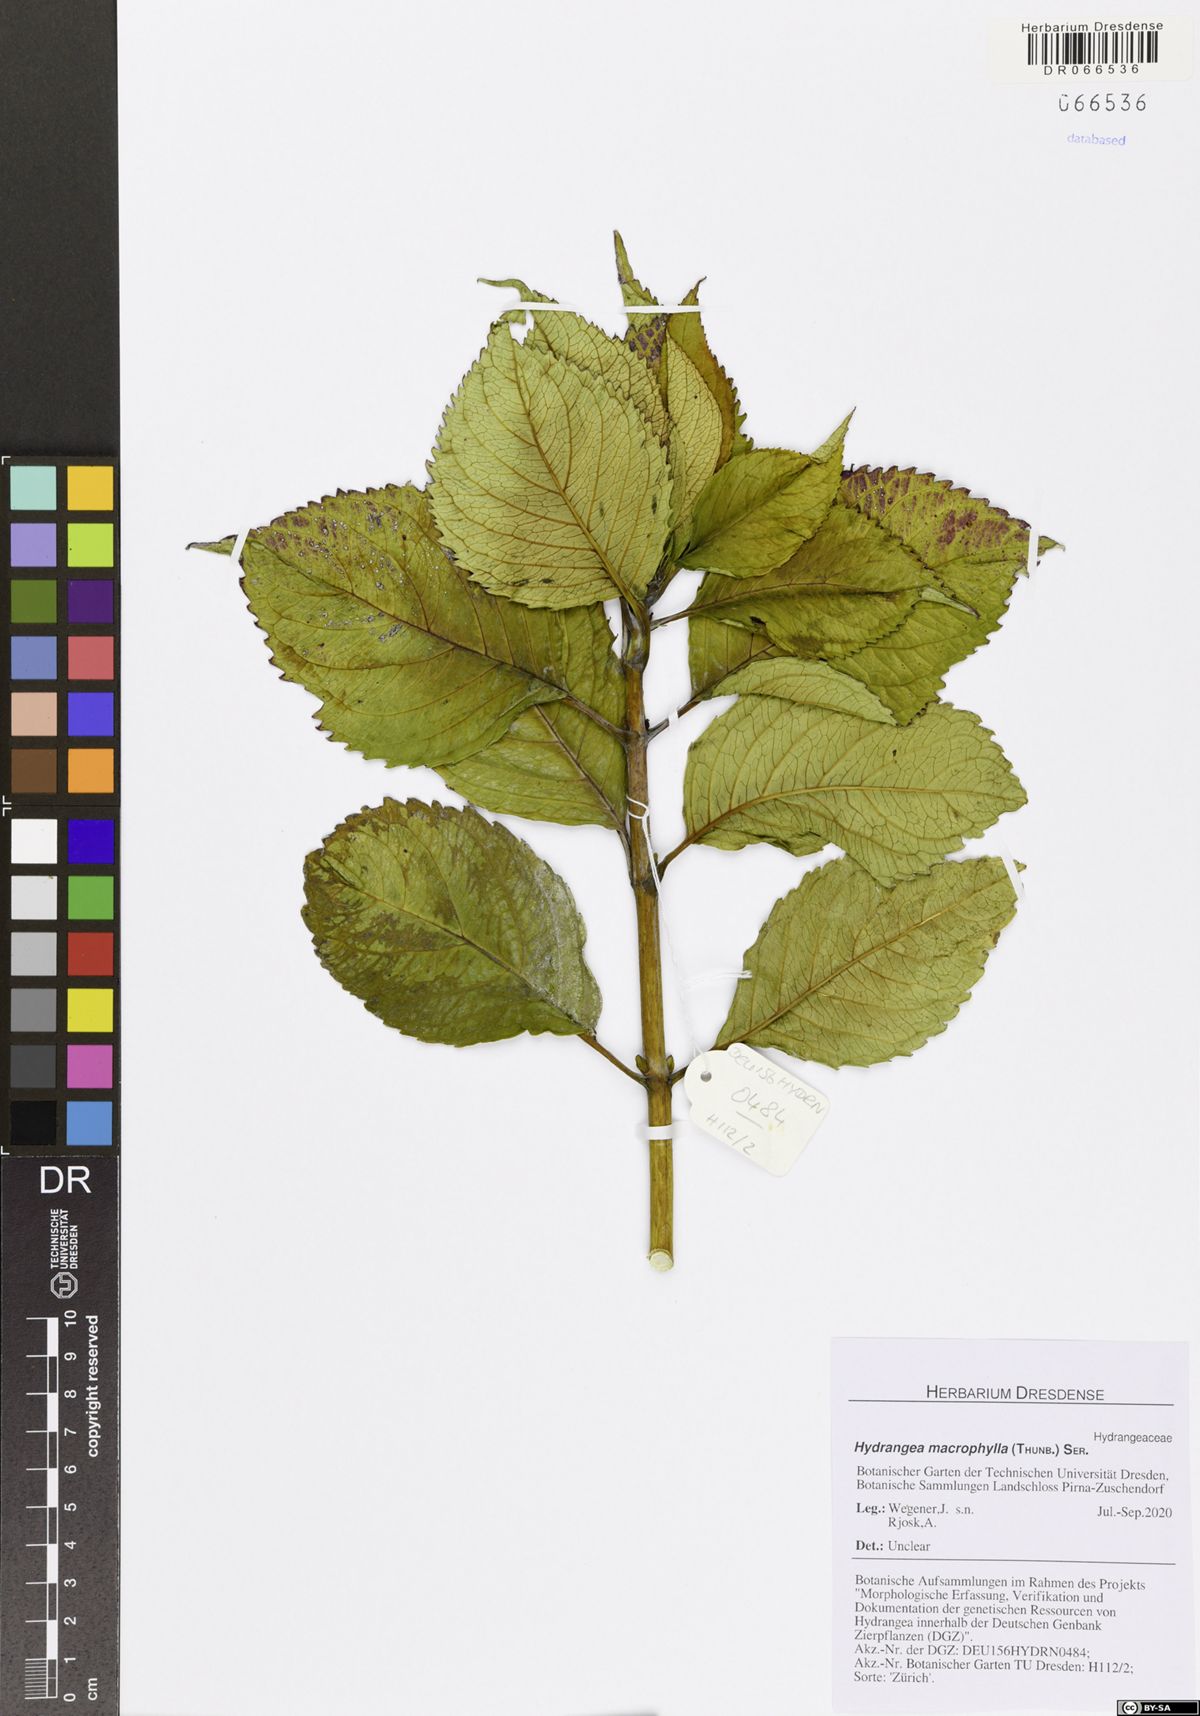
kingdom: Plantae
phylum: Tracheophyta
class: Magnoliopsida
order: Cornales
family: Hydrangeaceae
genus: Hydrangea
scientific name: Hydrangea macrophylla
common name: Hydrangea
